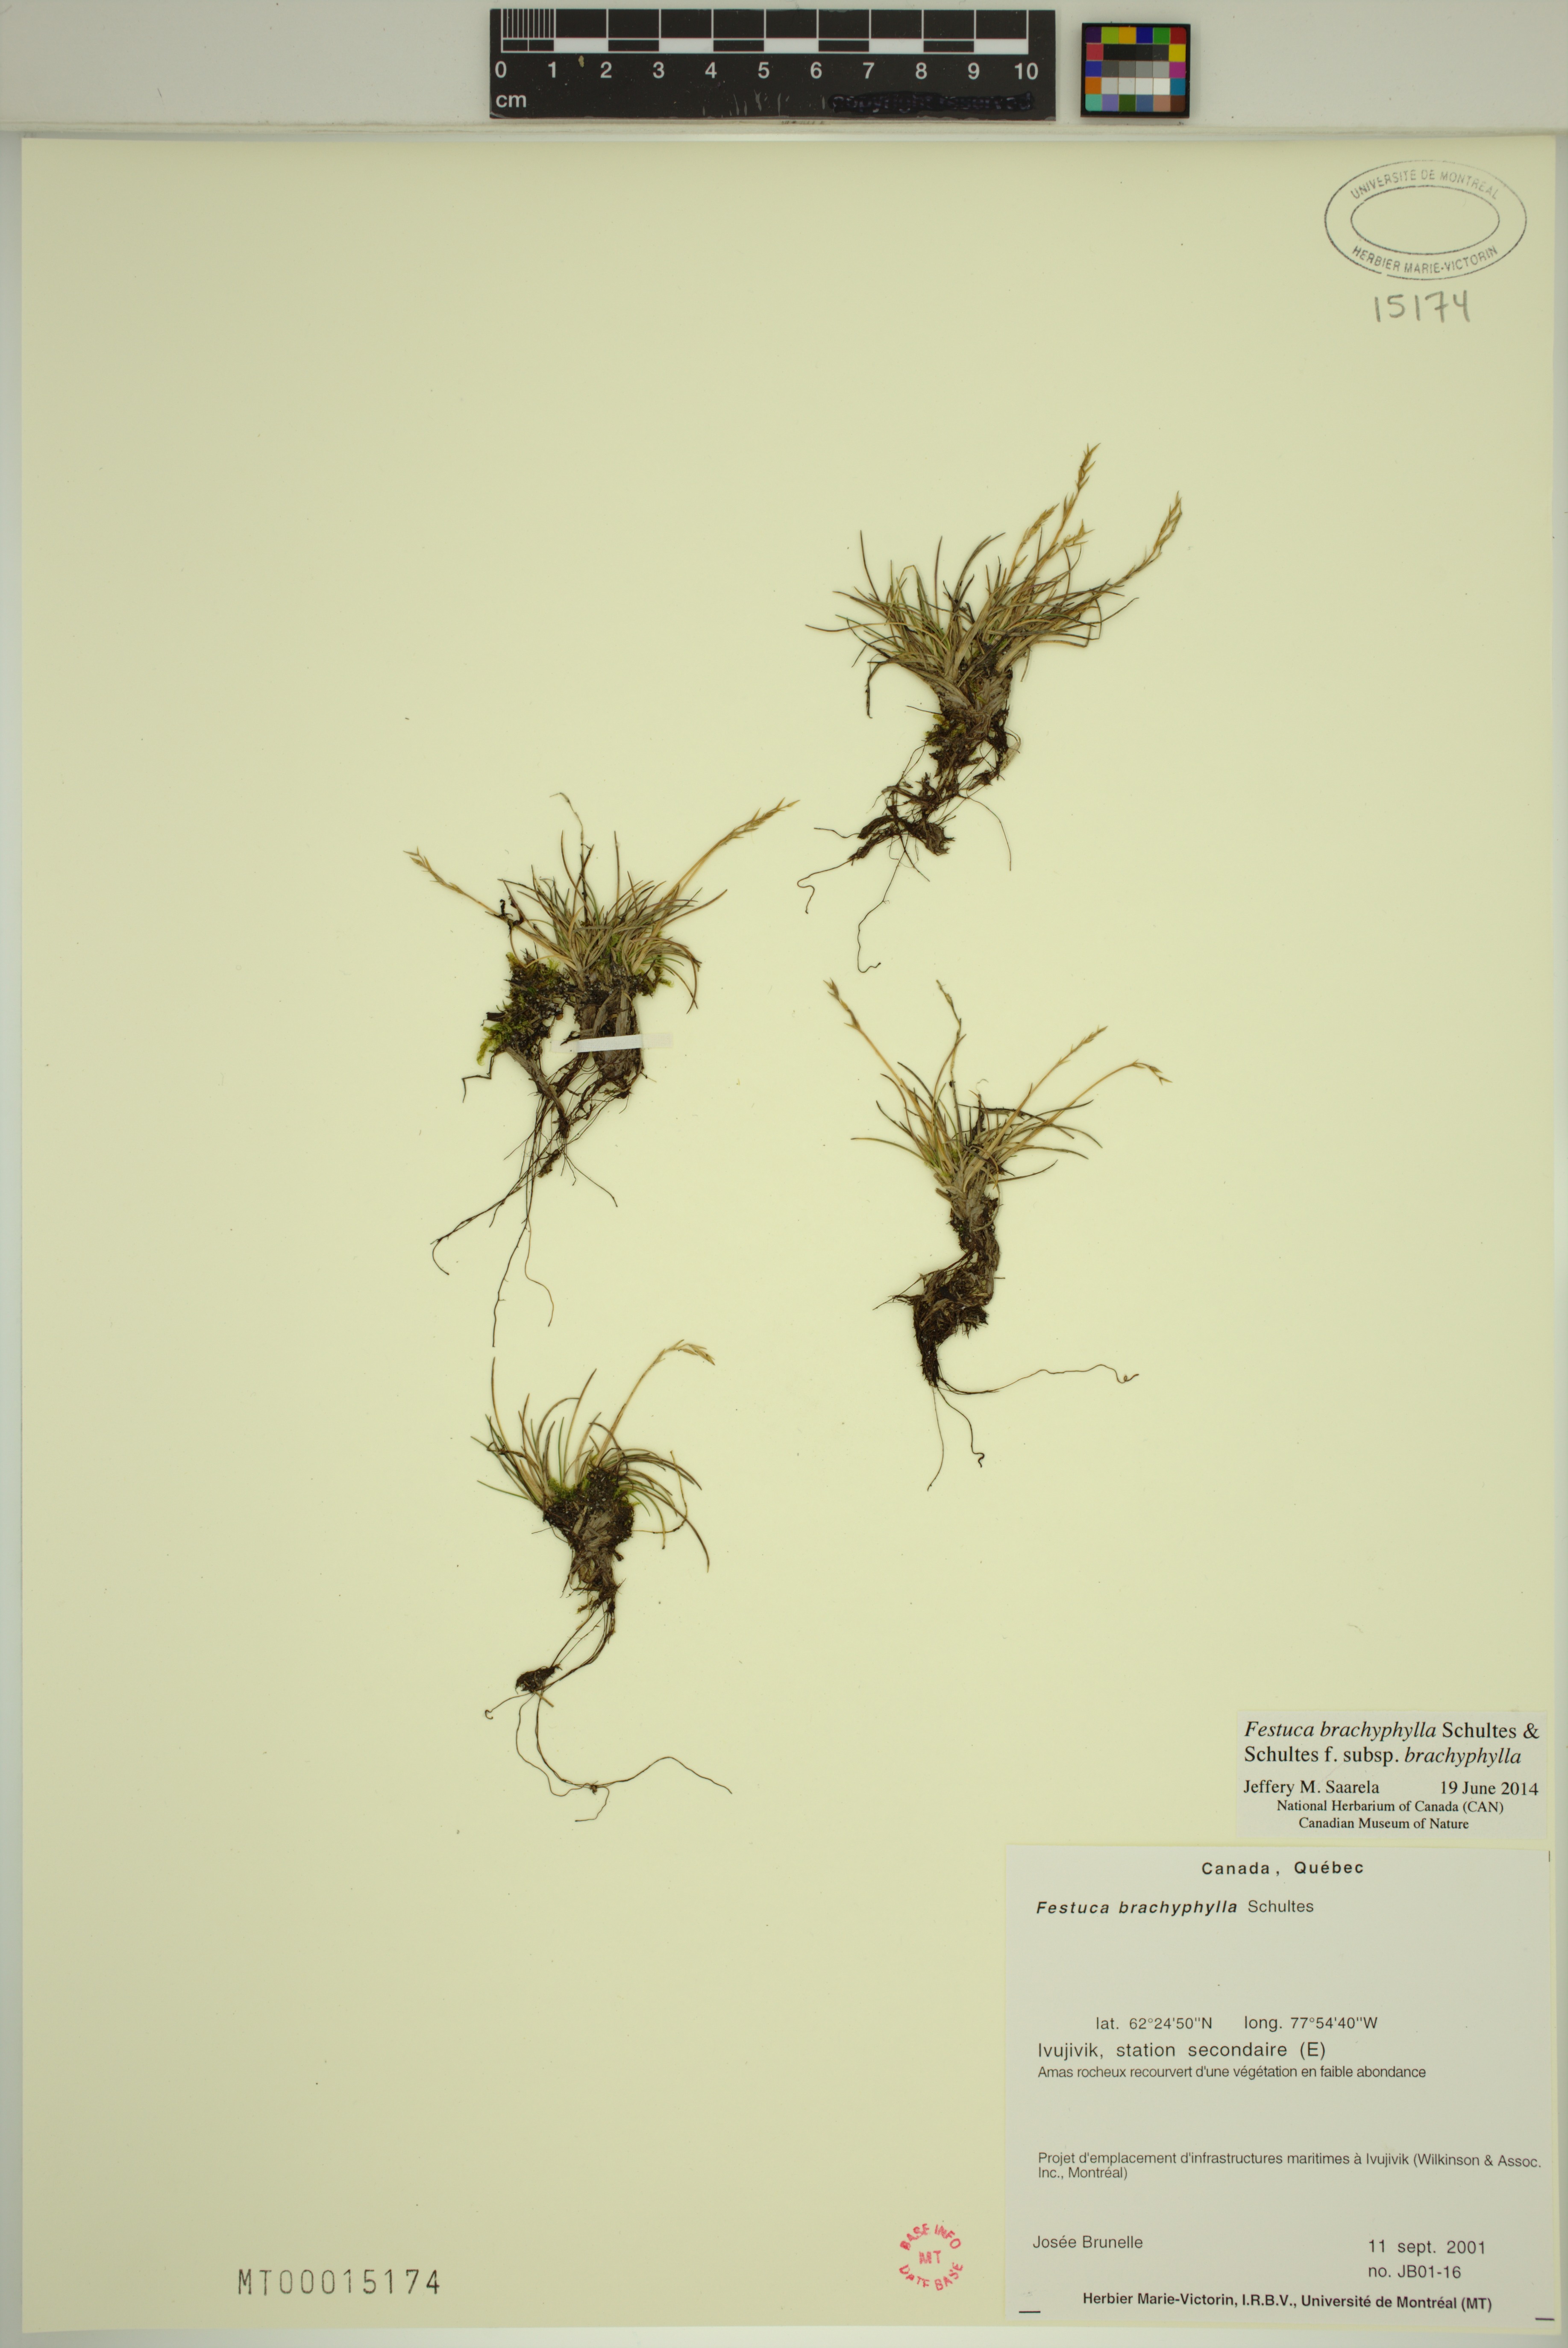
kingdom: Plantae
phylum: Tracheophyta
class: Liliopsida
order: Poales
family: Poaceae
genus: Festuca
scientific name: Festuca brachyphylla
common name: Alpine fescue
